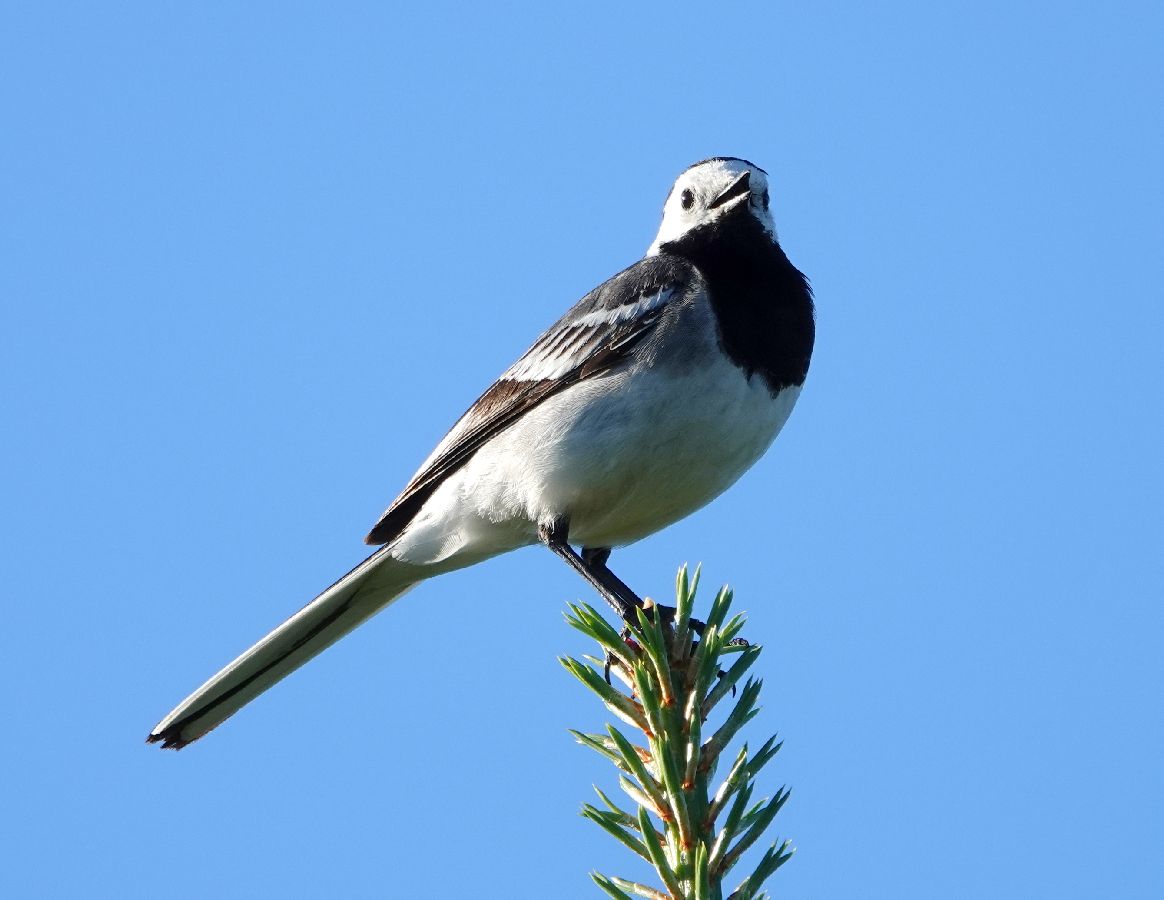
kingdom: Animalia
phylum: Chordata
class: Aves
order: Passeriformes
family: Motacillidae
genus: Motacilla
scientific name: Motacilla alba
